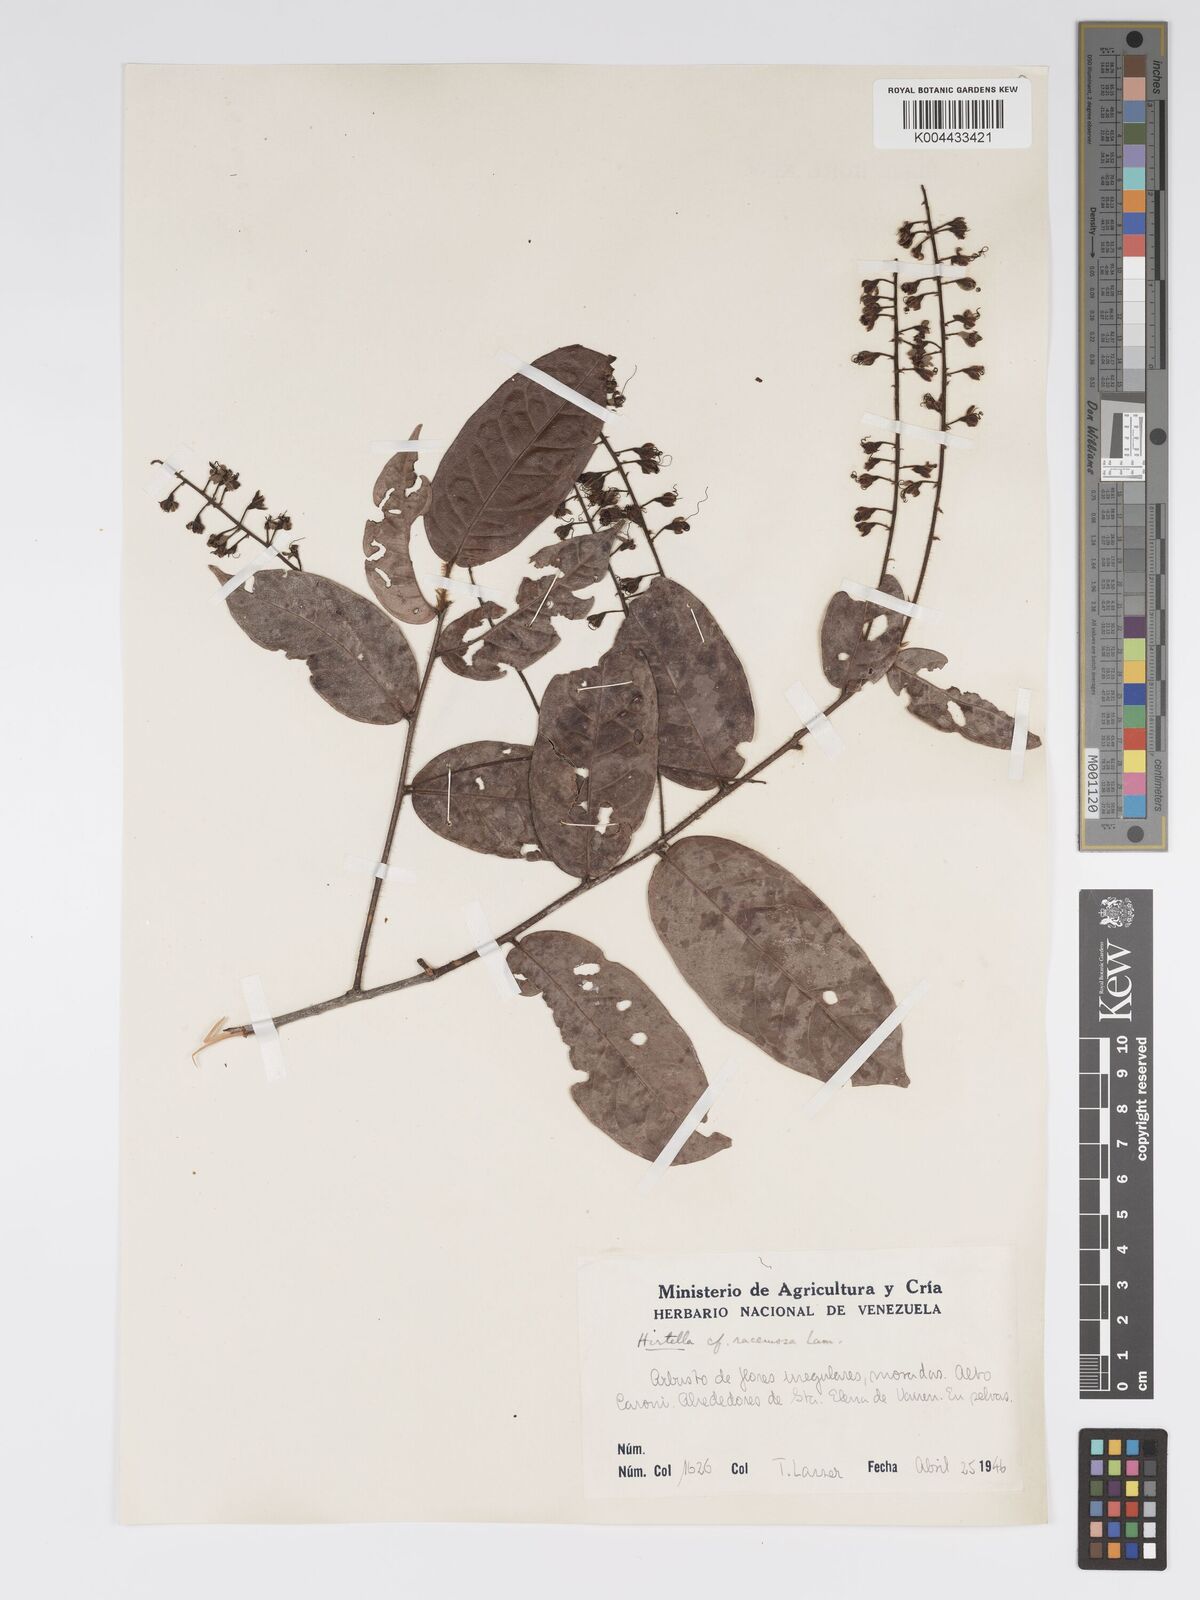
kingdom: Plantae
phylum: Tracheophyta
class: Magnoliopsida
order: Malpighiales
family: Chrysobalanaceae
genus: Hirtella
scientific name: Hirtella racemosa
